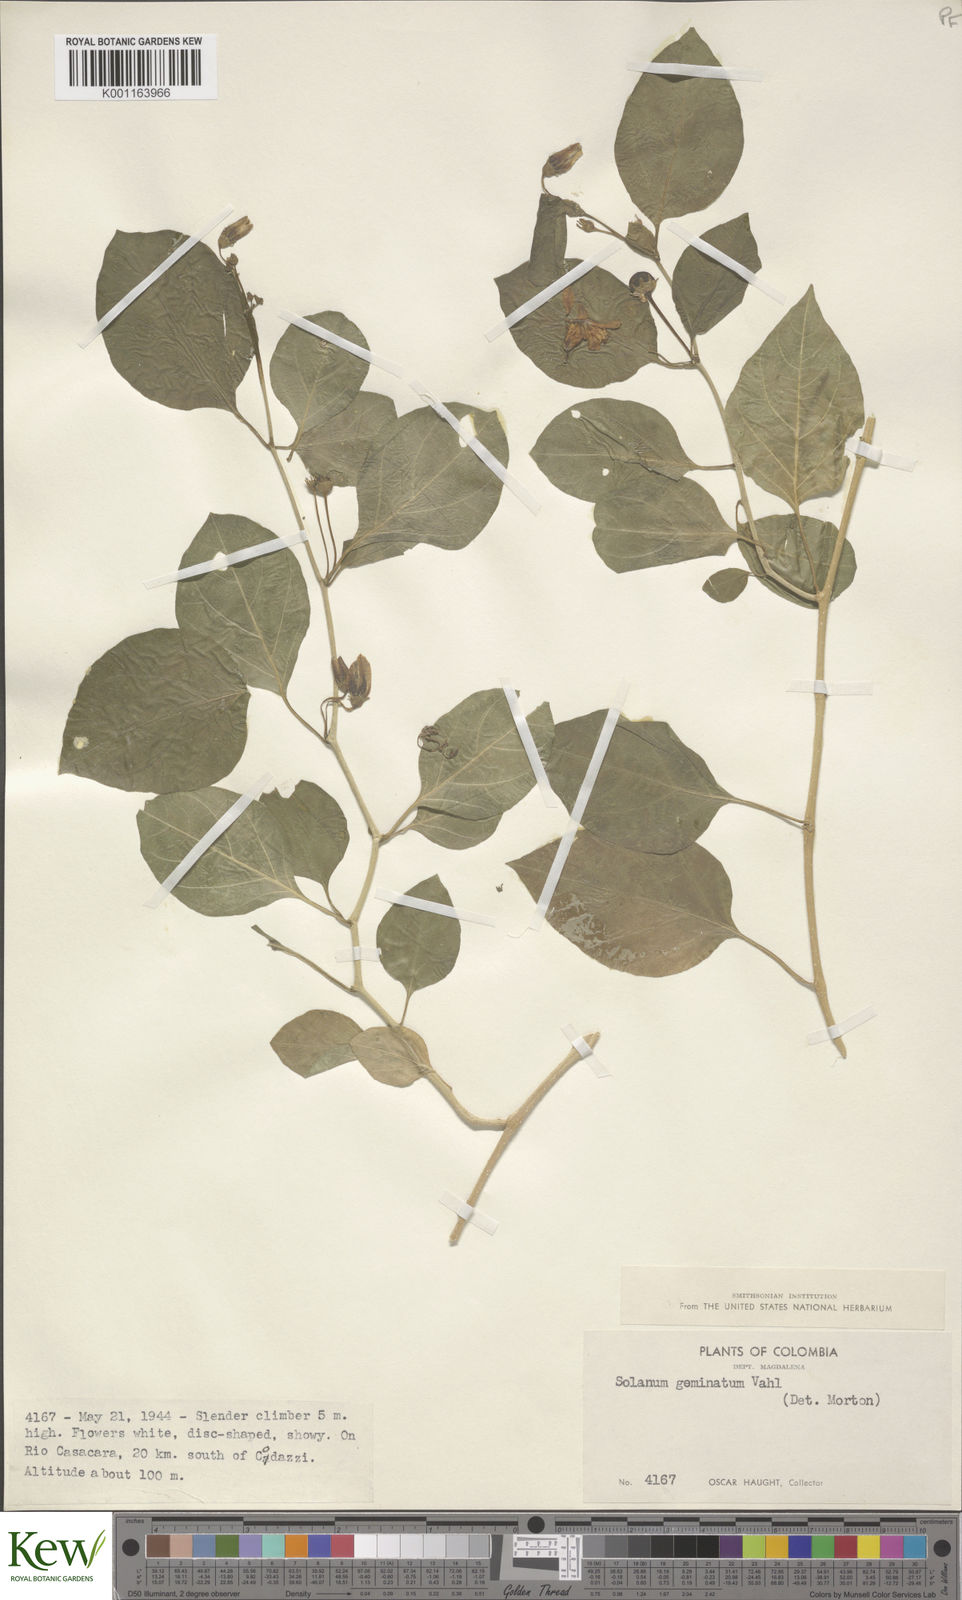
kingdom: Plantae
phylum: Tracheophyta
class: Magnoliopsida
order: Solanales
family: Solanaceae
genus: Lycianthes
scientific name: Lycianthes pauciflora
